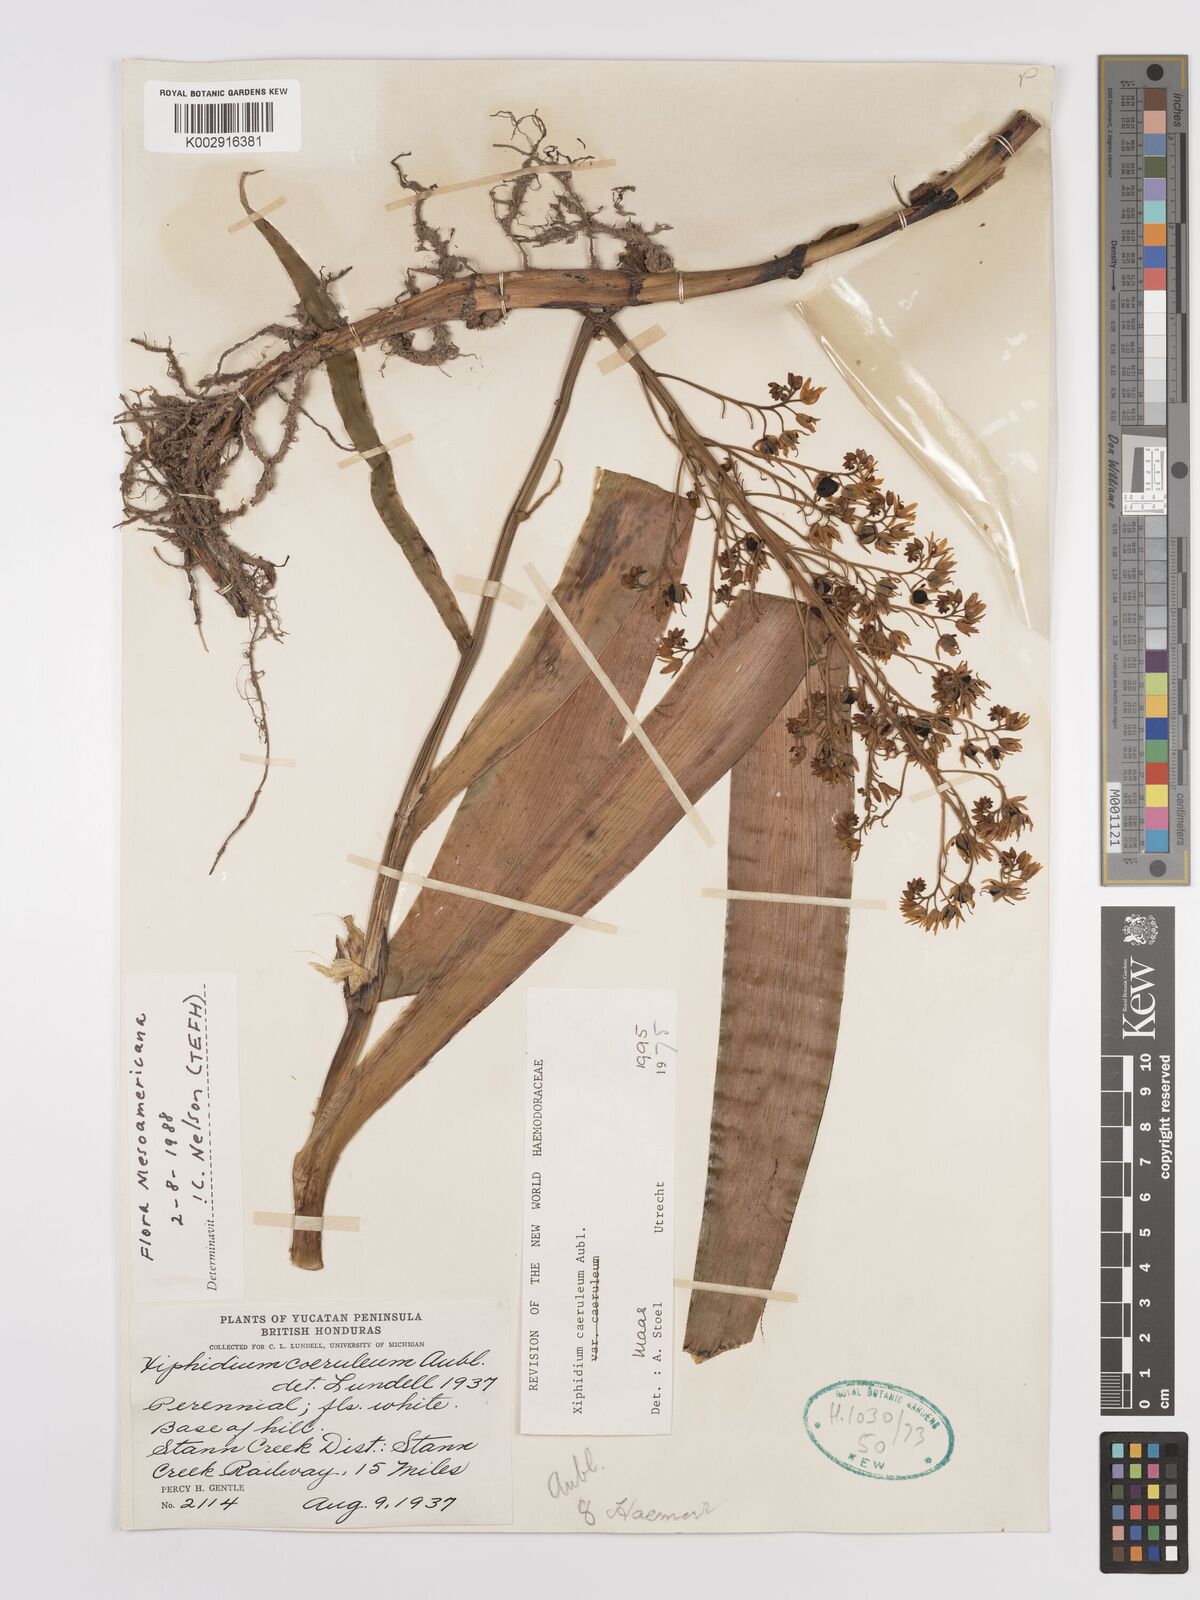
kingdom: Plantae
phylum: Tracheophyta
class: Liliopsida
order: Commelinales
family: Haemodoraceae
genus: Xiphidium
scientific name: Xiphidium caeruleum
